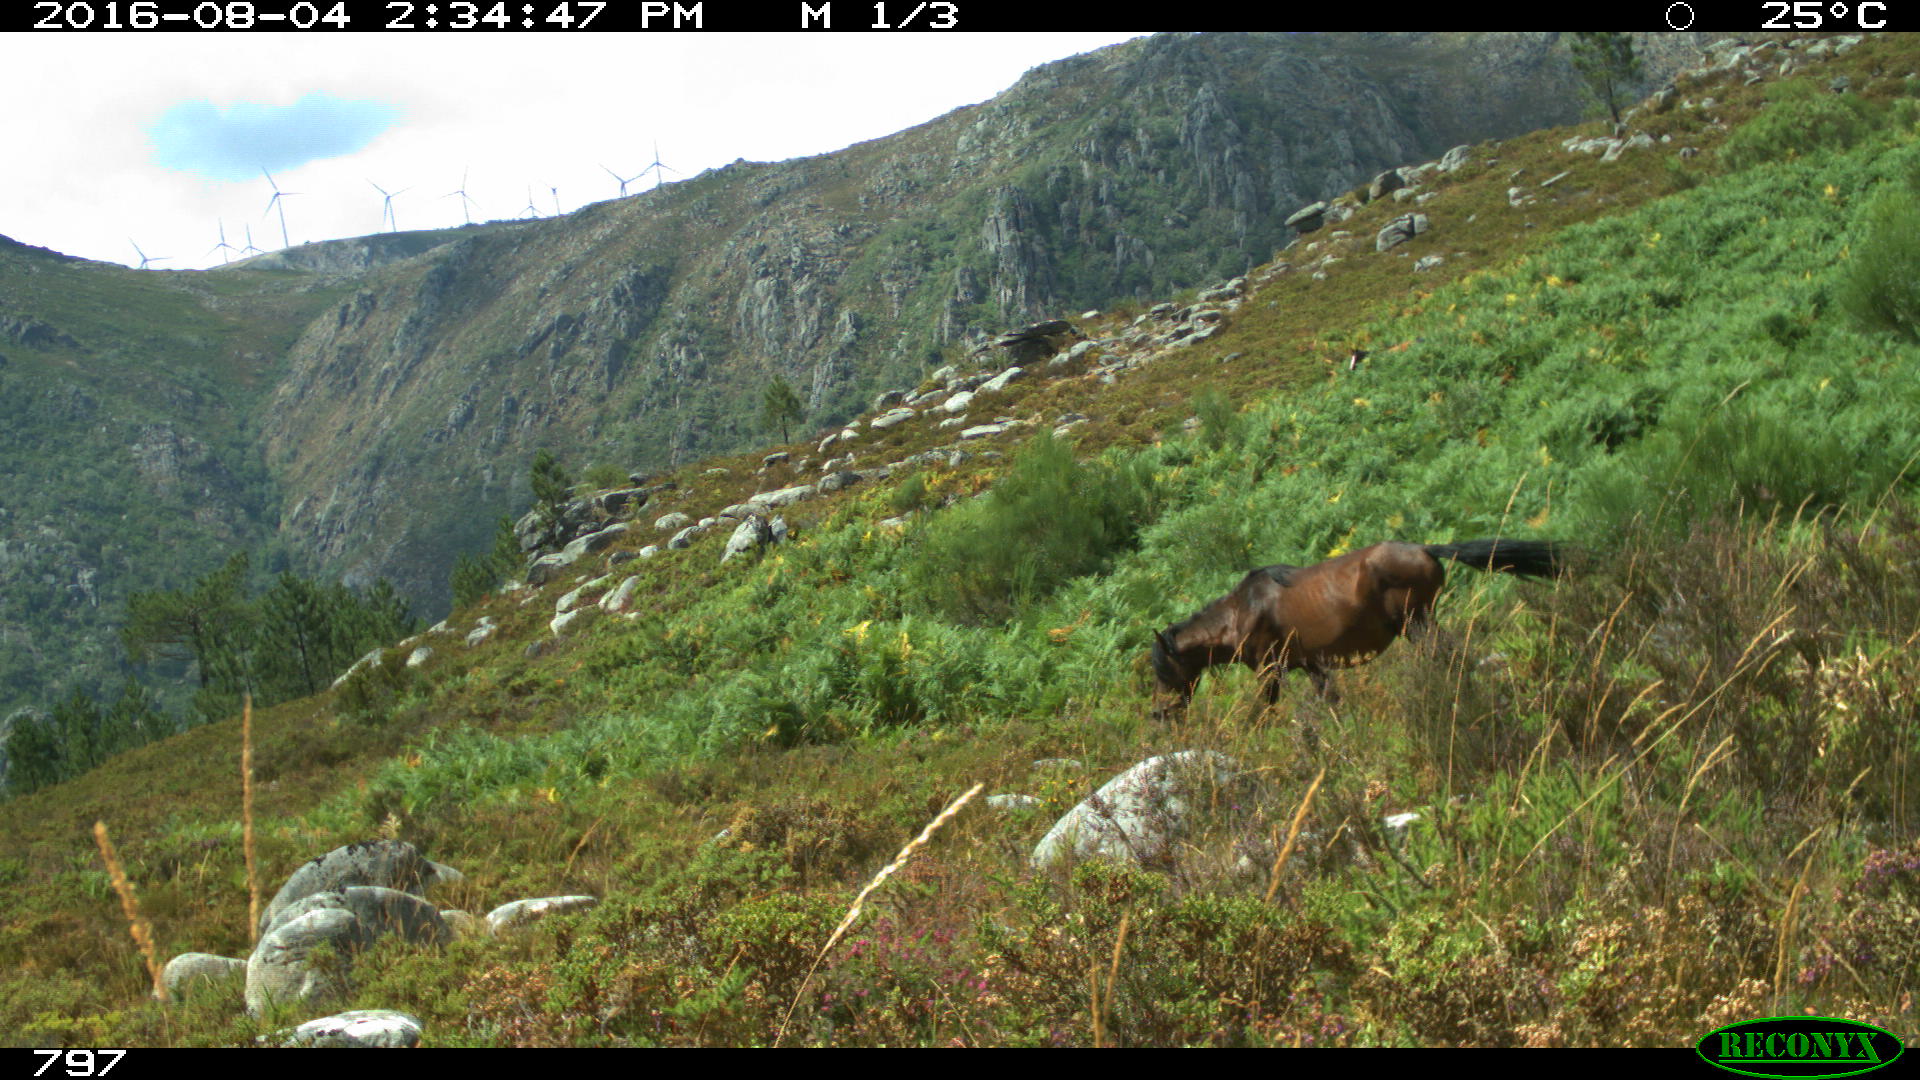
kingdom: Animalia
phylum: Chordata
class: Mammalia
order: Perissodactyla
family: Equidae
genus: Equus
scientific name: Equus caballus
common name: Horse
